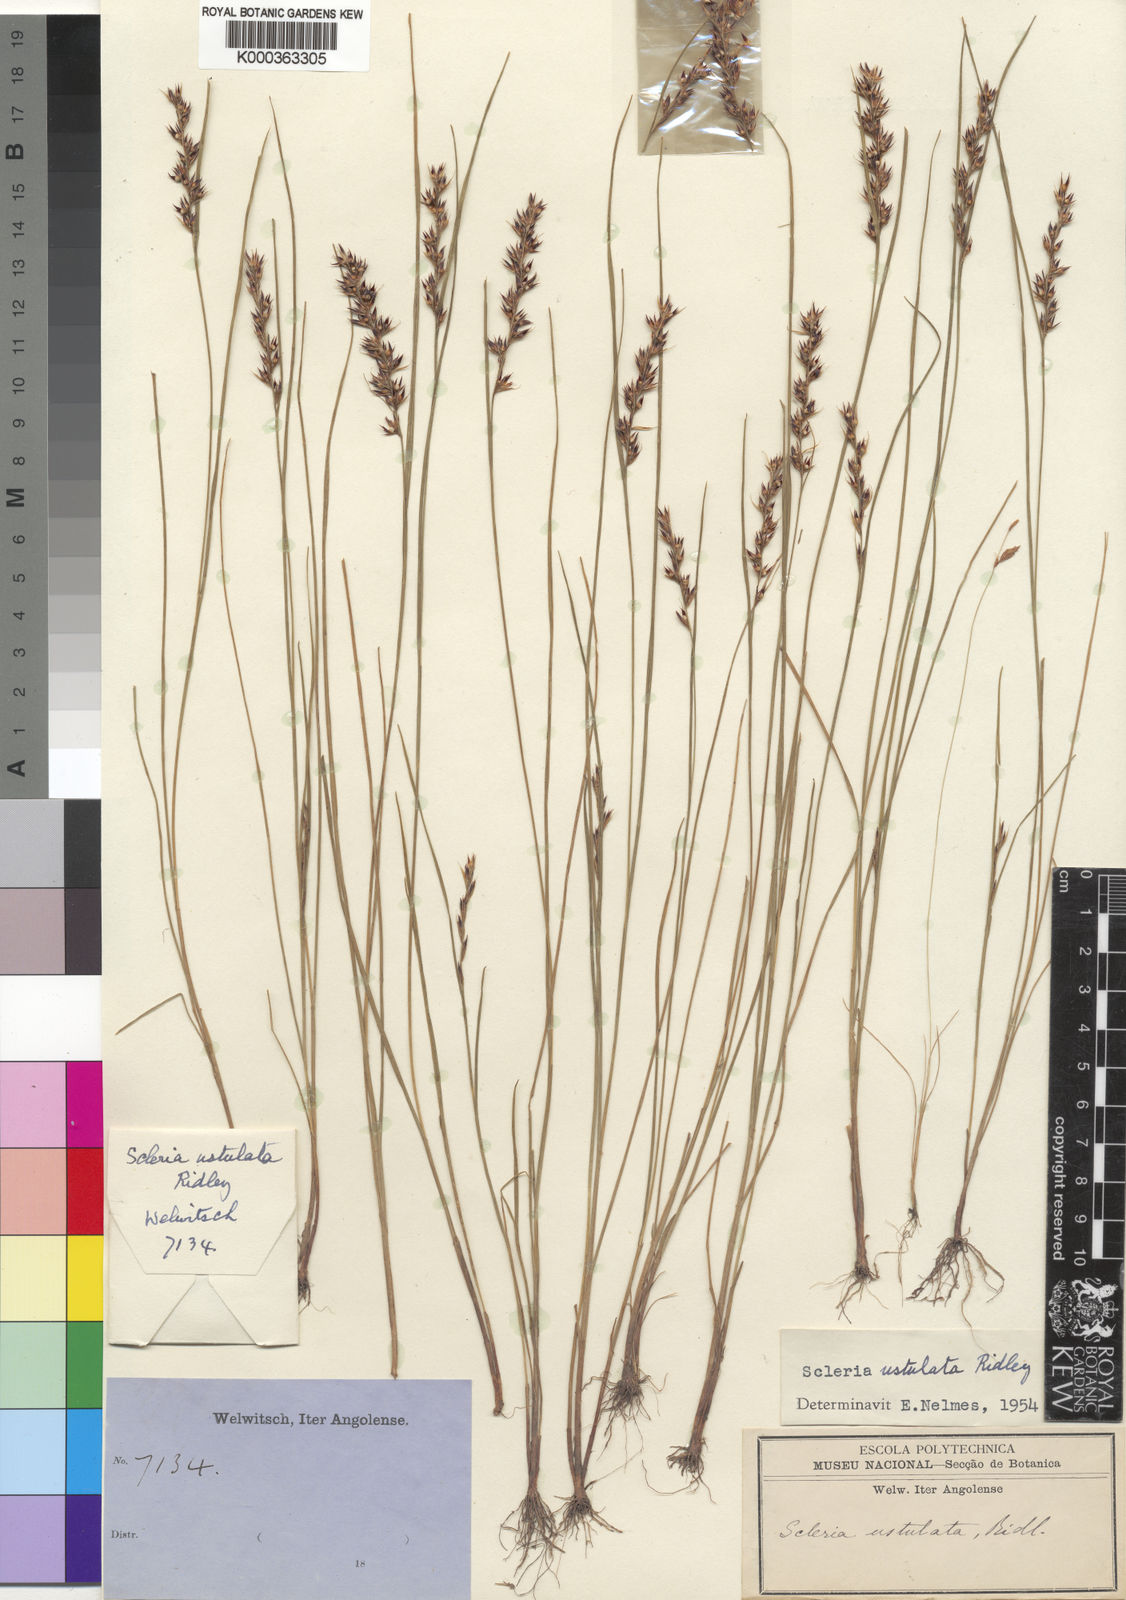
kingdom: Plantae
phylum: Tracheophyta
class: Liliopsida
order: Poales
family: Cyperaceae
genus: Scleria
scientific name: Scleria pergracilis
